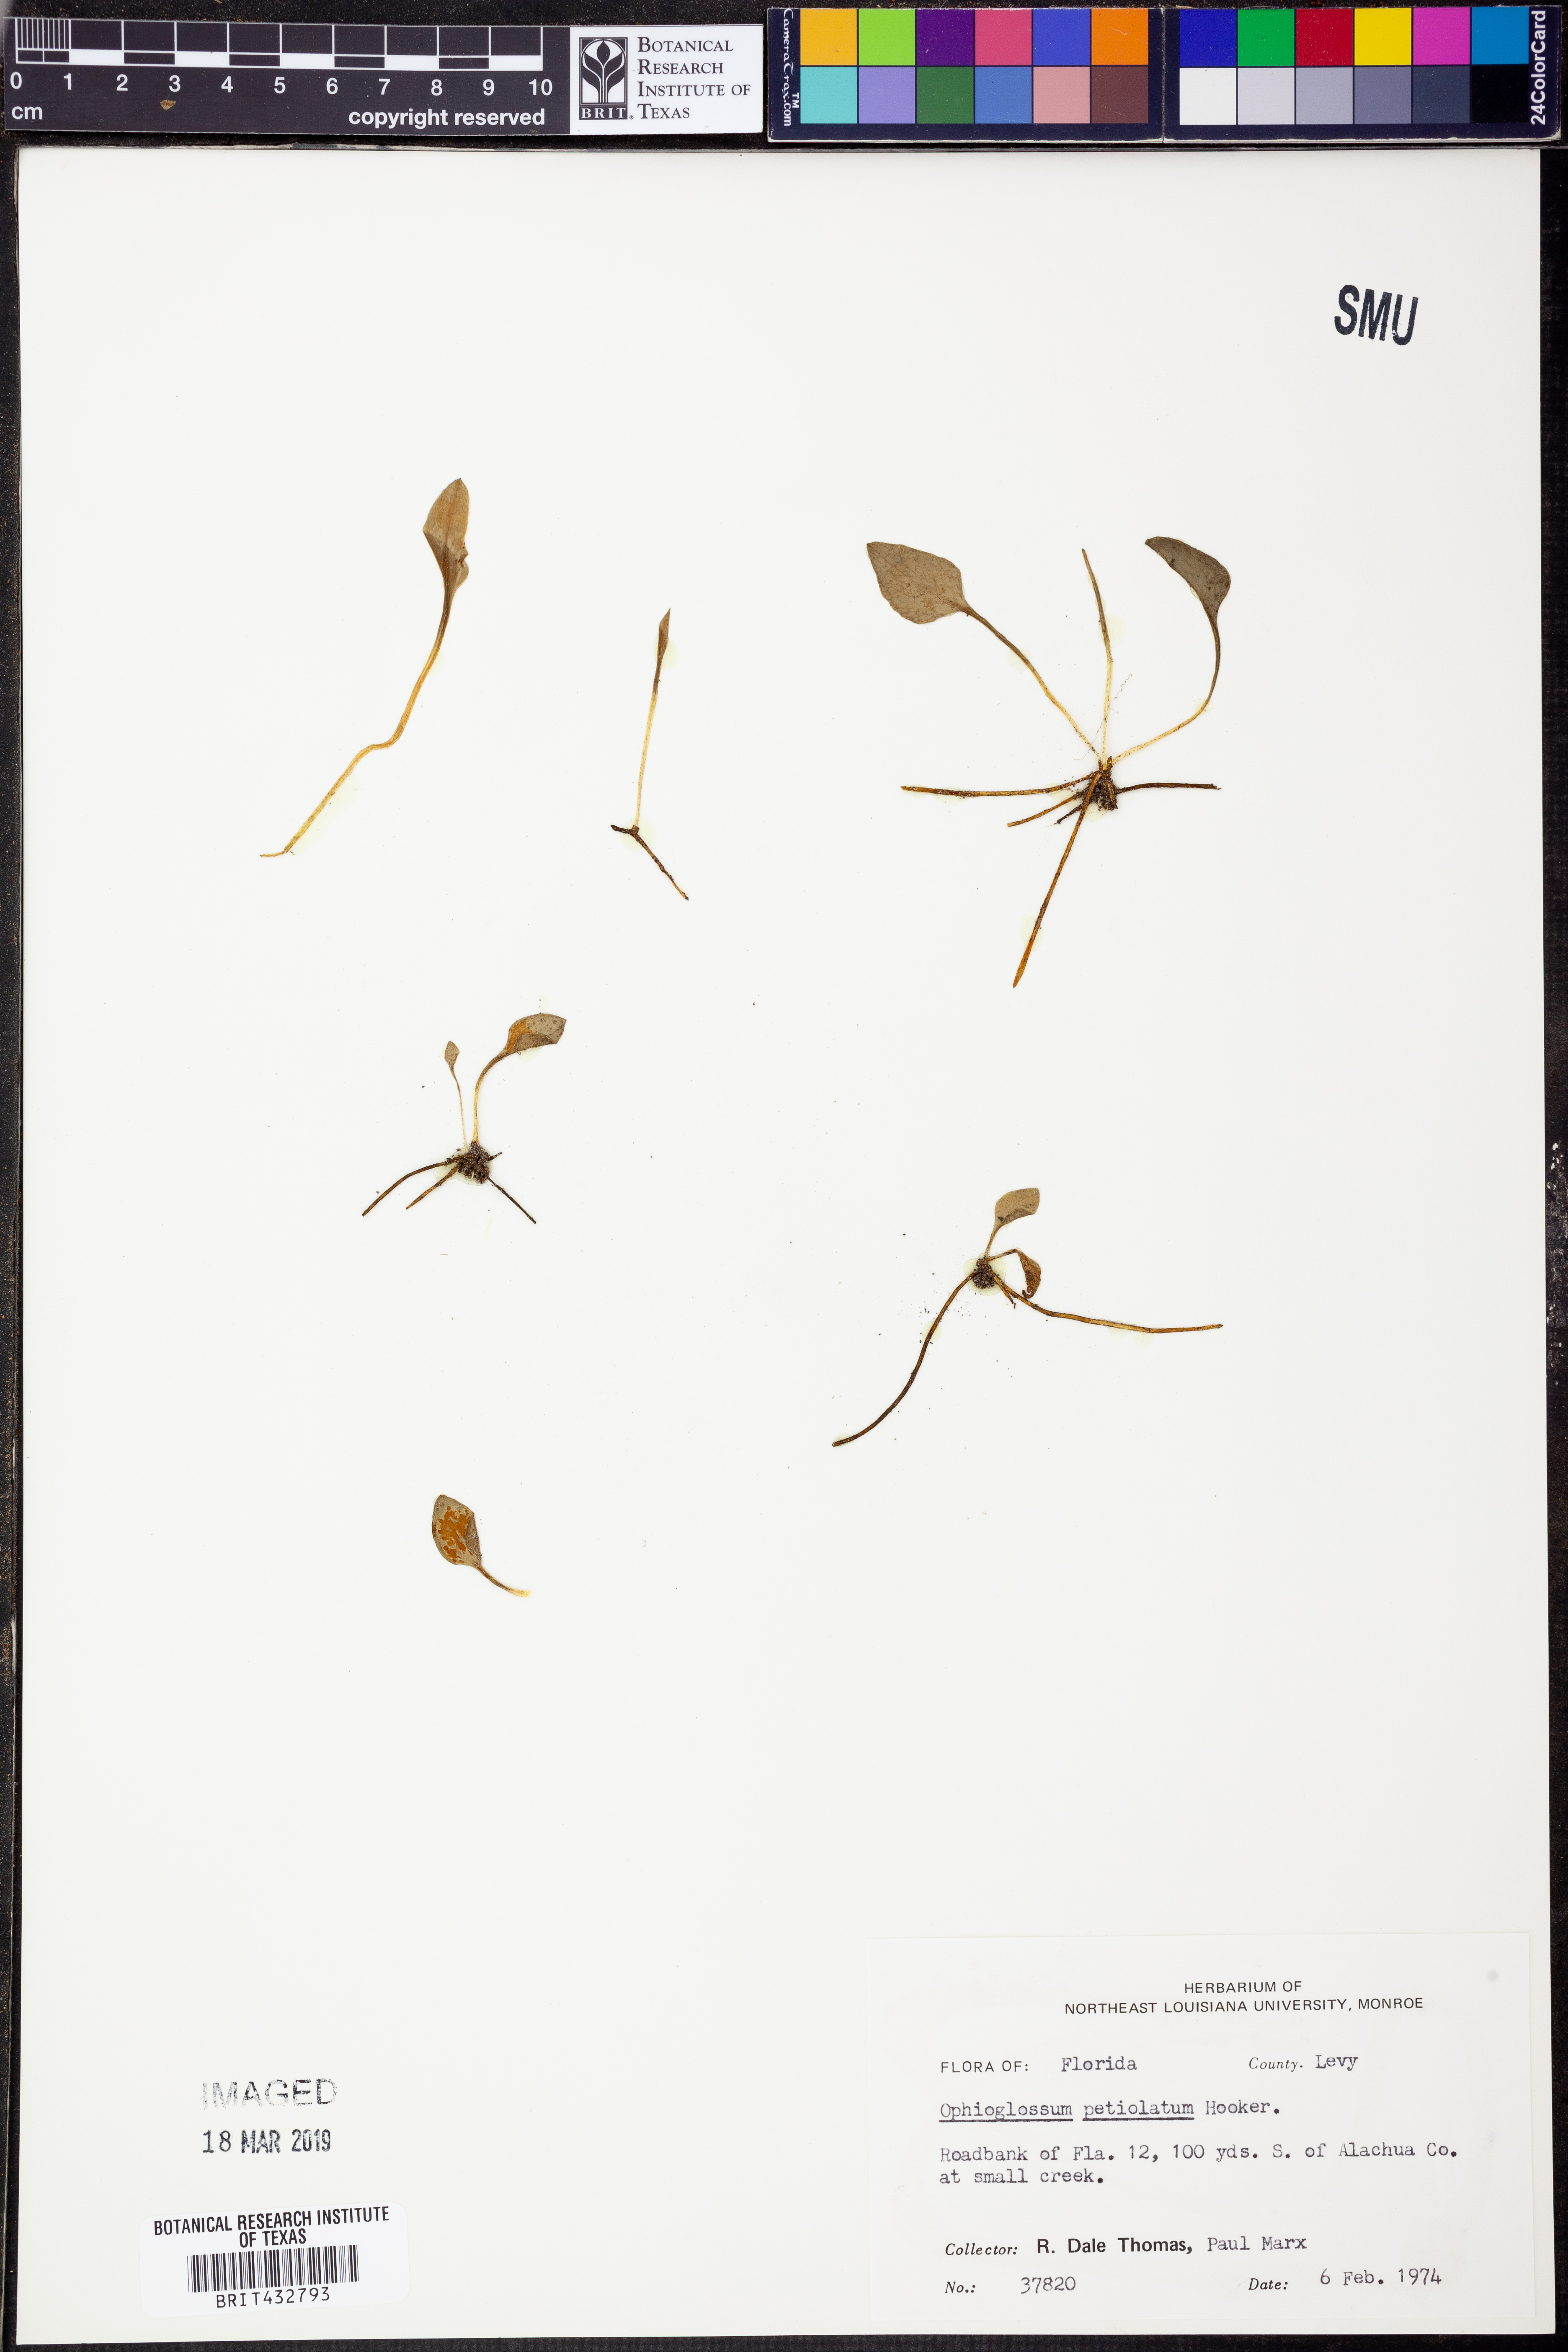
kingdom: Plantae
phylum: Tracheophyta
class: Polypodiopsida
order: Ophioglossales
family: Ophioglossaceae
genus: Ophioglossum
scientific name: Ophioglossum petiolatum
